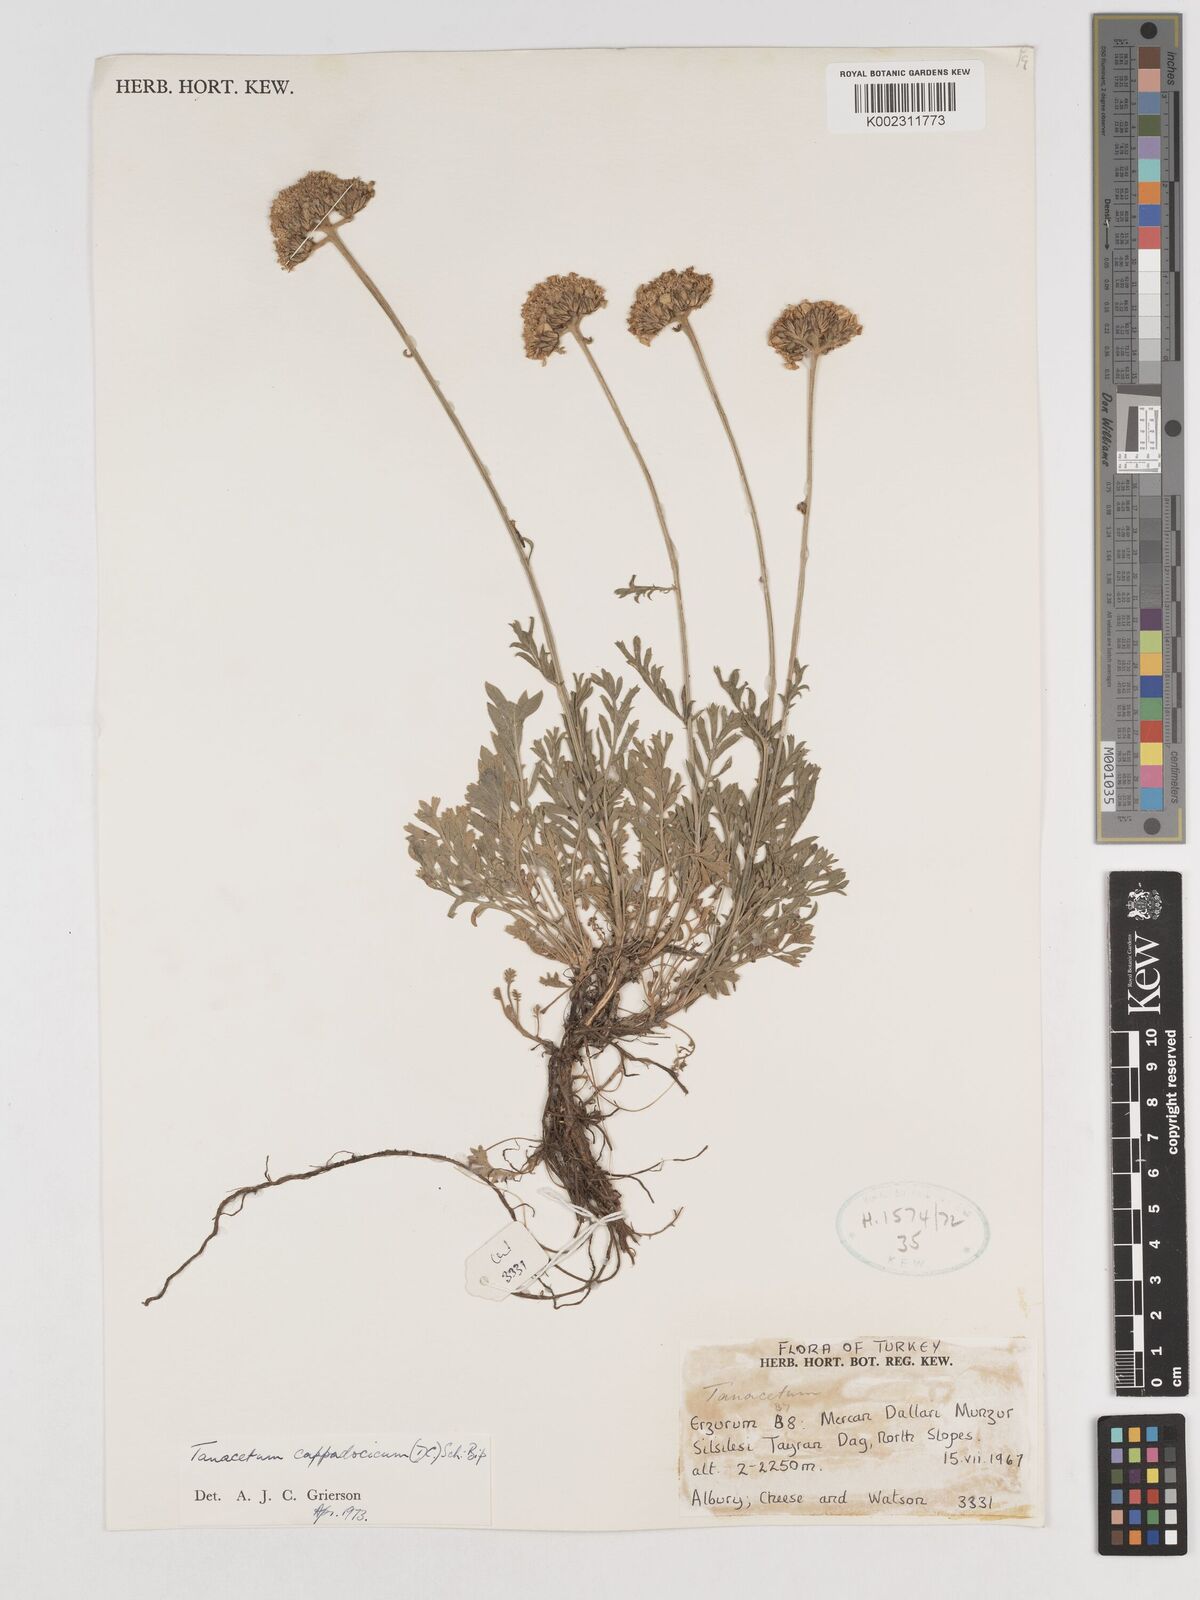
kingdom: Plantae
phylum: Tracheophyta
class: Magnoliopsida
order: Asterales
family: Asteraceae
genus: Tanacetum
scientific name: Tanacetum cappadocicum
